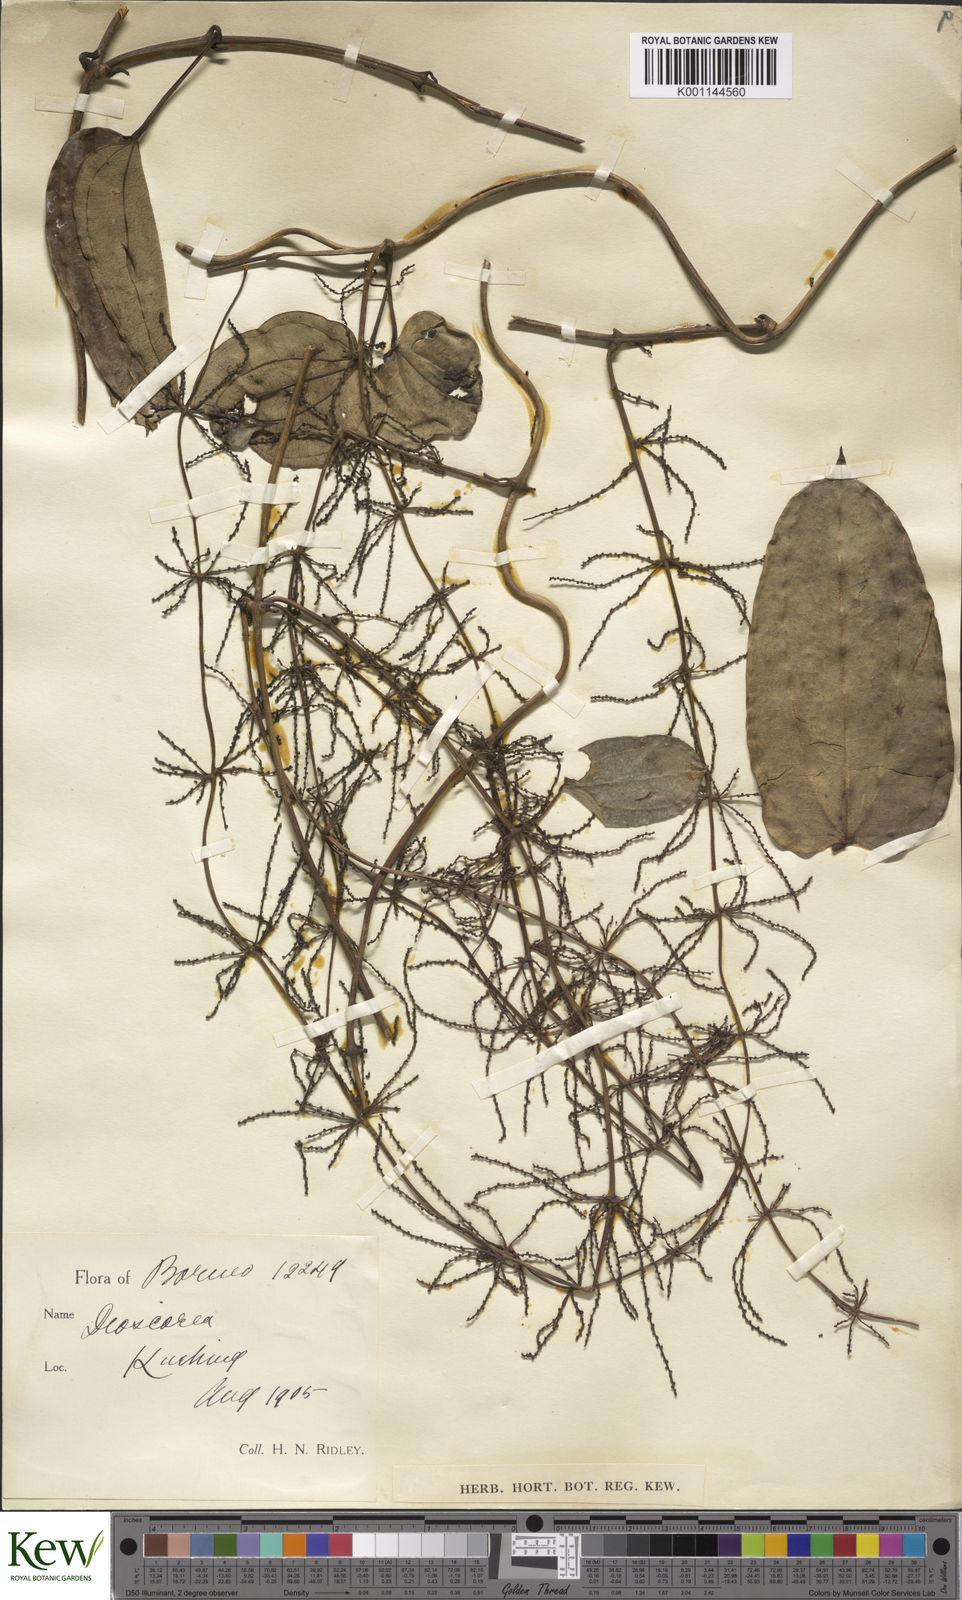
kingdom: Plantae
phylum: Tracheophyta
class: Liliopsida
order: Dioscoreales
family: Dioscoreaceae
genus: Dioscorea
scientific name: Dioscorea pyrifolia
